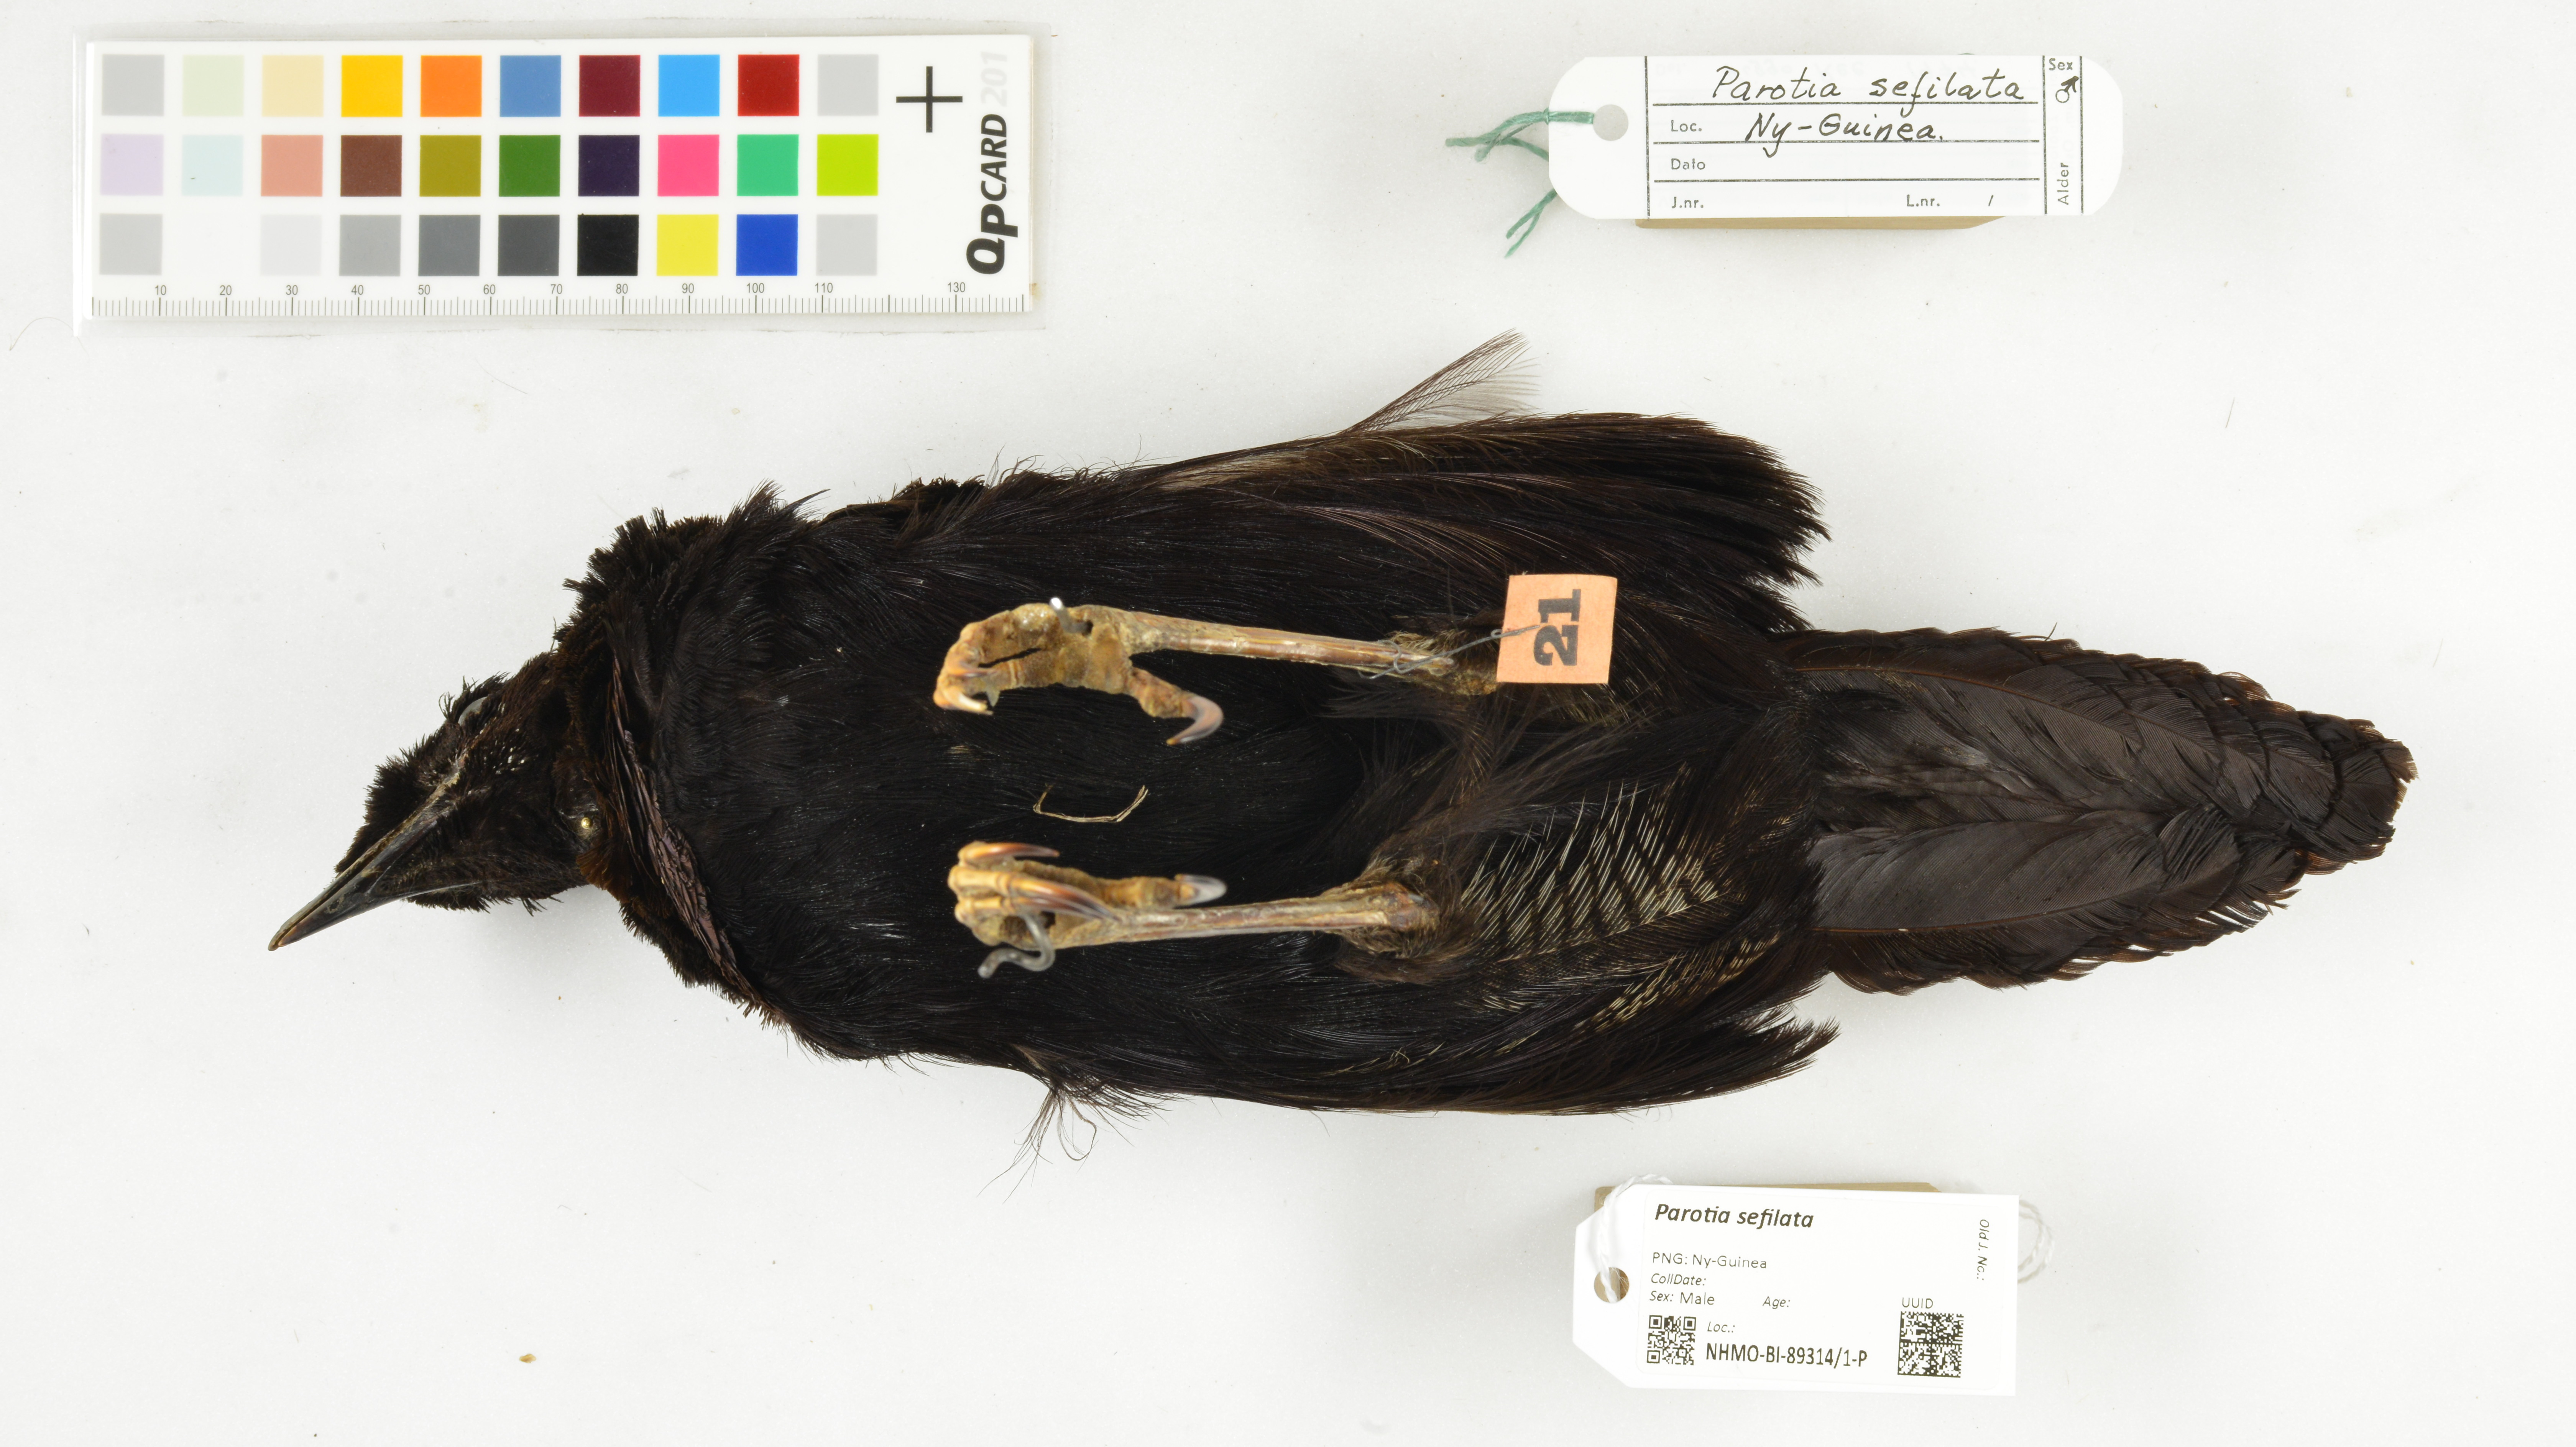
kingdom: Animalia
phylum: Chordata
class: Aves
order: Passeriformes
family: Paradisaeidae
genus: Parotia
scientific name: Parotia sefilata
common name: Western parotia
